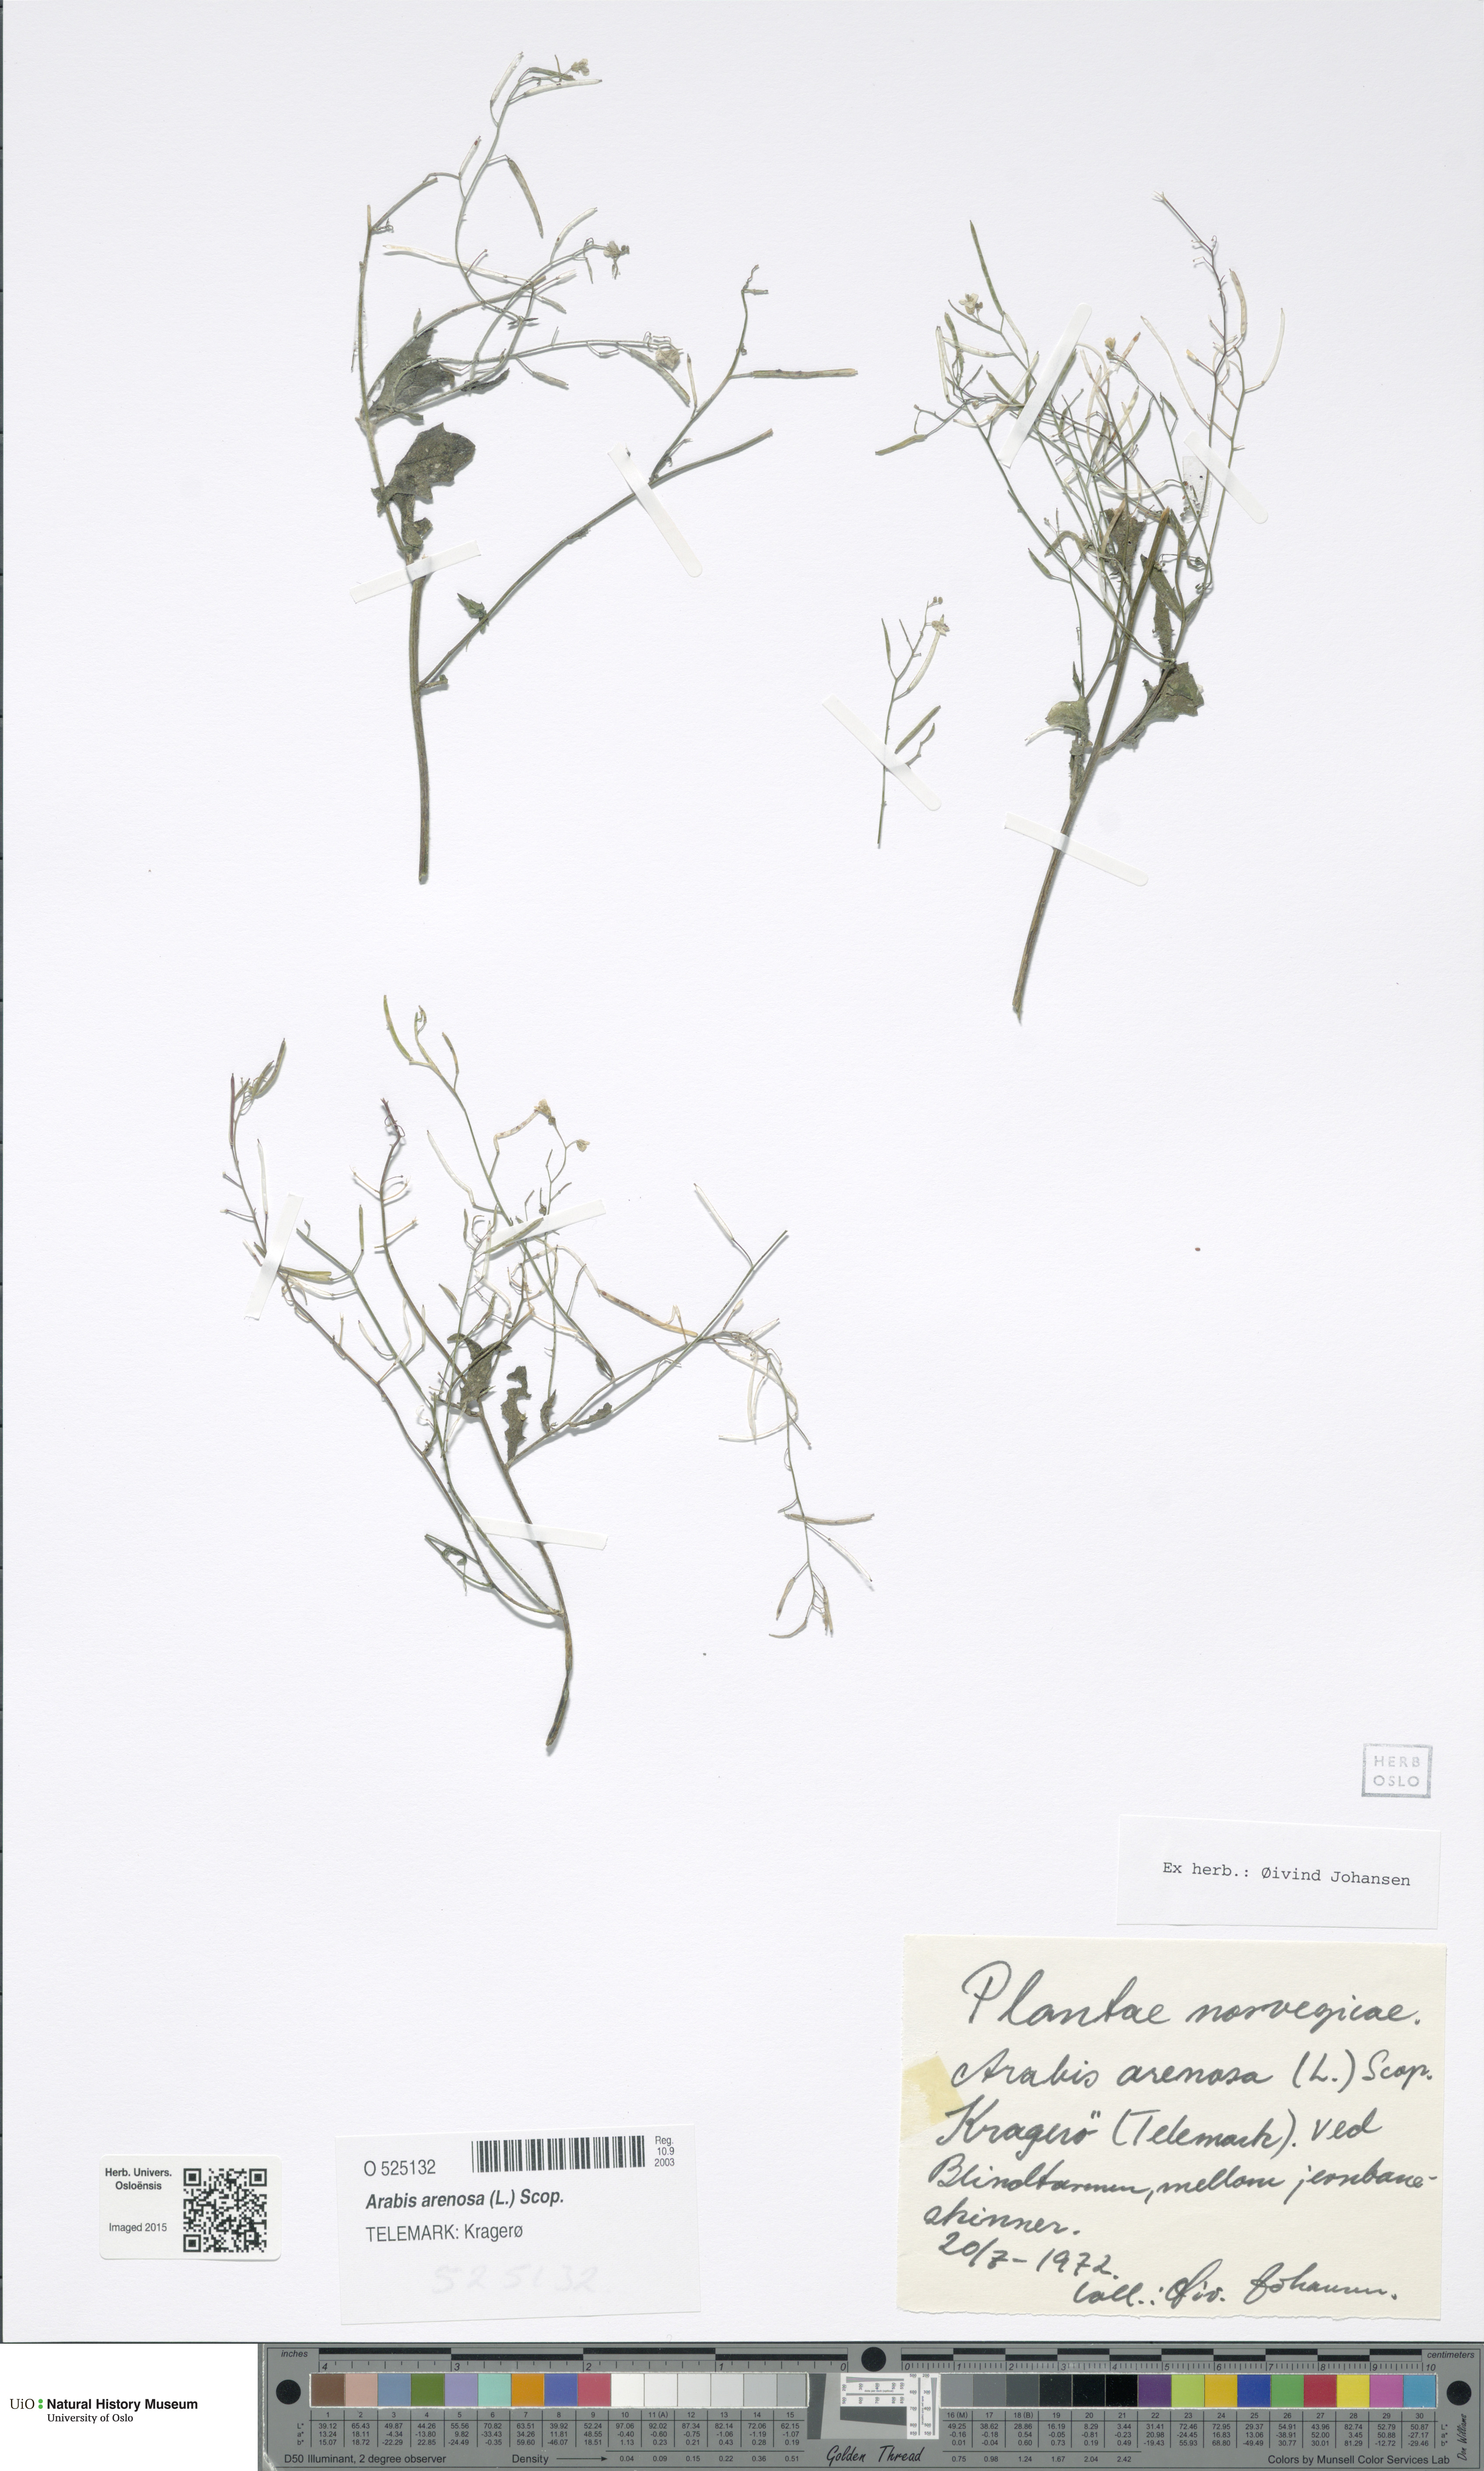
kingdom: Plantae
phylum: Tracheophyta
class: Magnoliopsida
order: Brassicales
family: Brassicaceae
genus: Arabidopsis
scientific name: Arabidopsis arenosa
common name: Sand rock-cress
